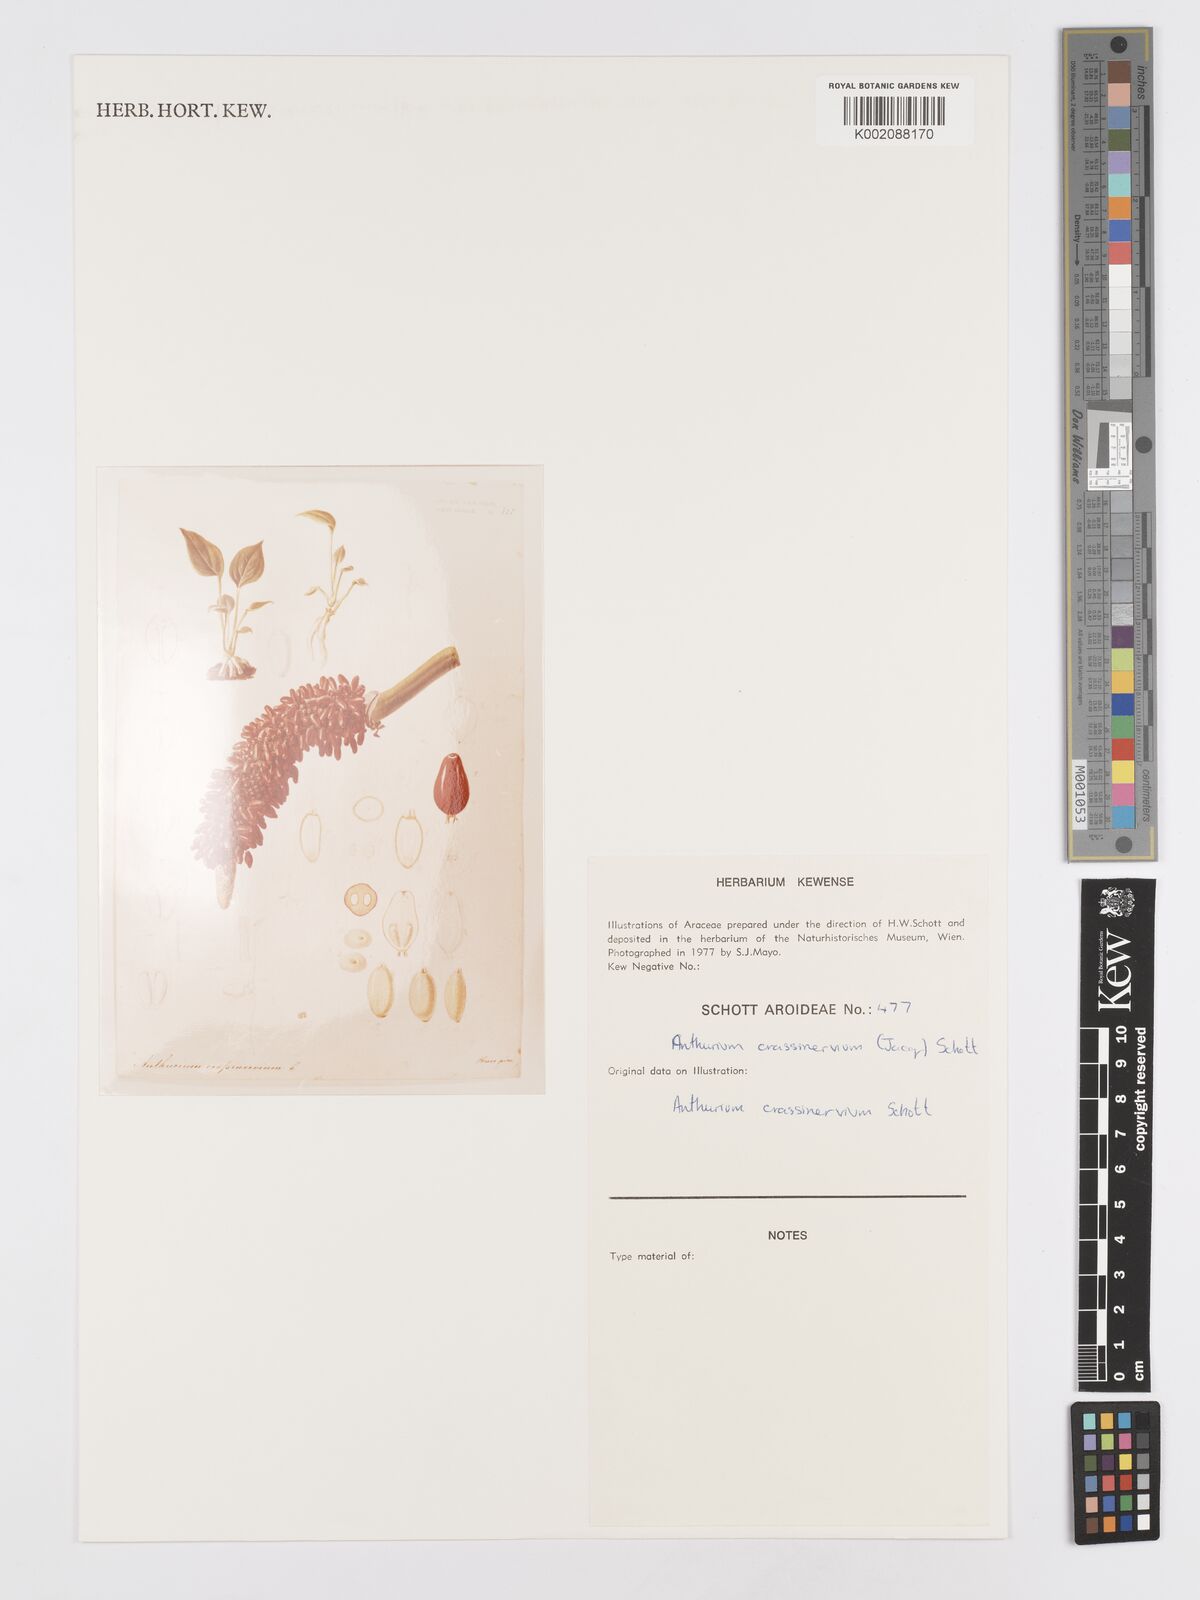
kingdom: Plantae
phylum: Tracheophyta
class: Liliopsida
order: Alismatales
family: Araceae
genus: Anthurium
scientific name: Anthurium crassinervium
